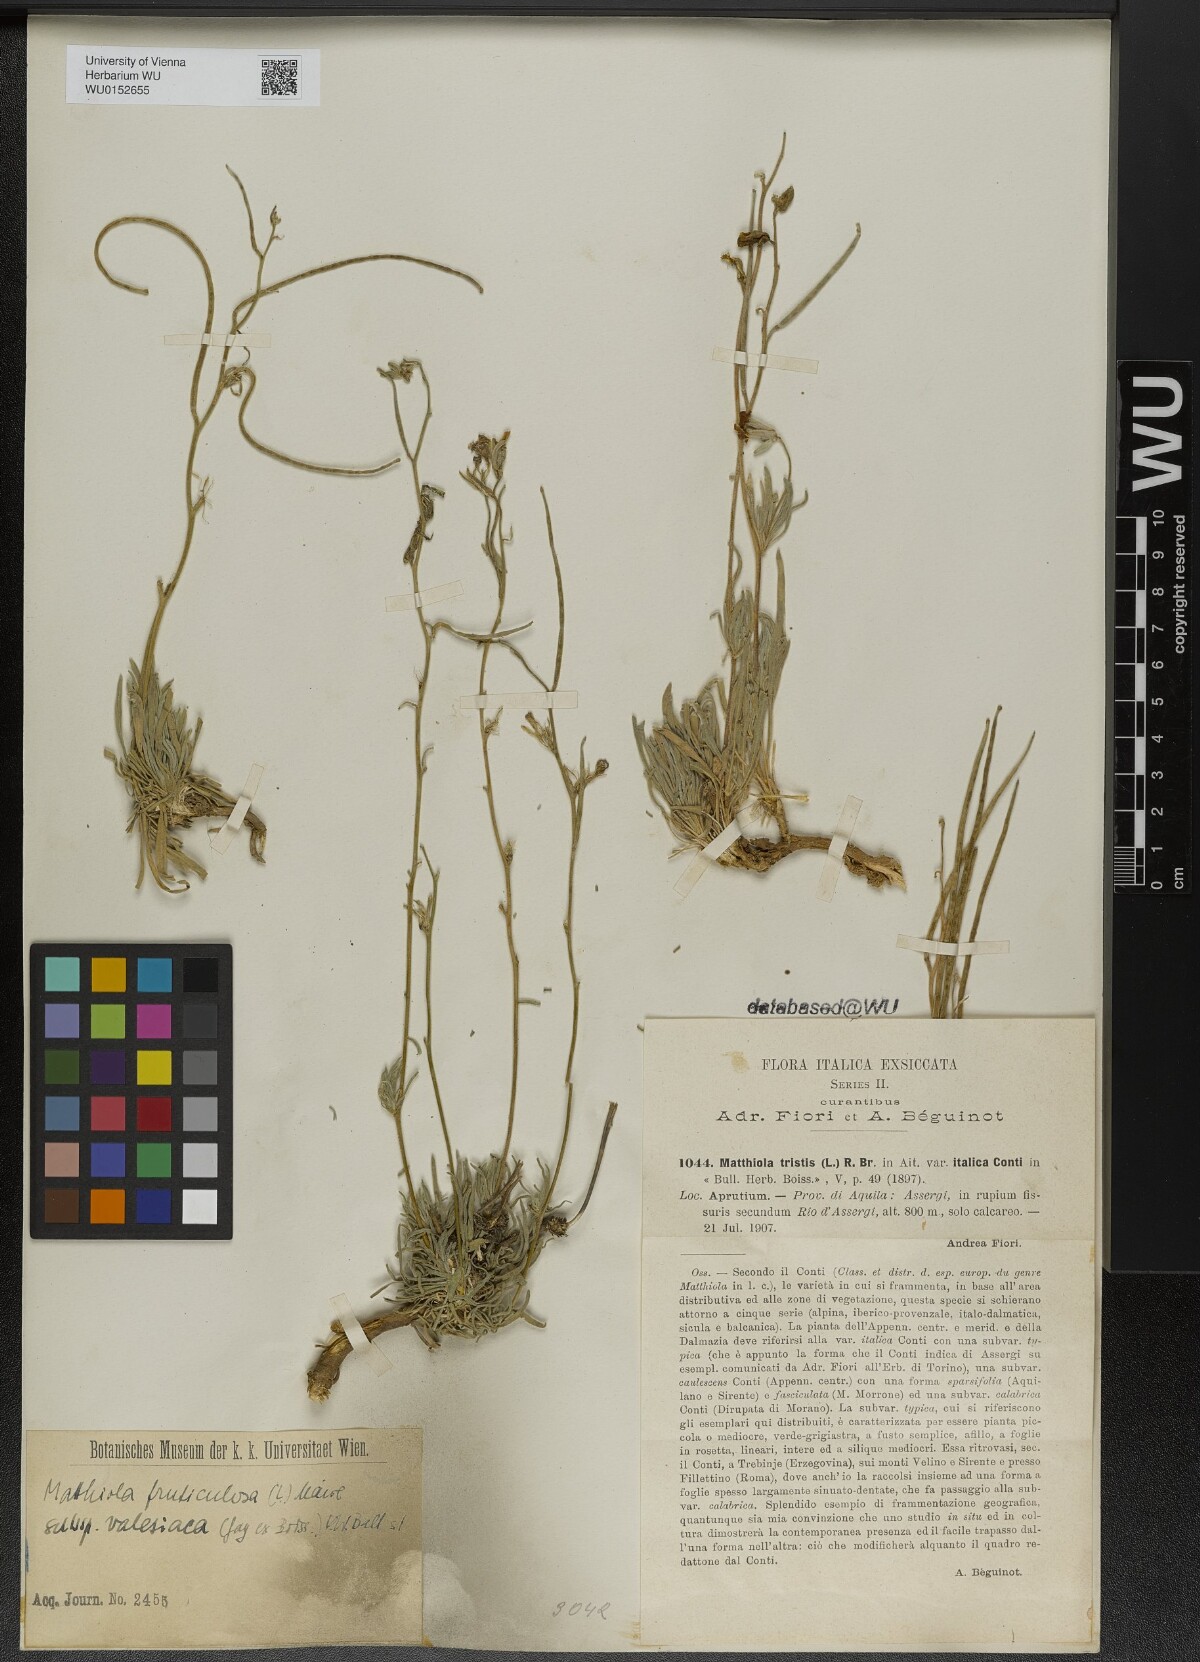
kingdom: Plantae
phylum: Tracheophyta
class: Magnoliopsida
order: Brassicales
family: Brassicaceae
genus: Matthiola
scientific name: Matthiola fruticulosa
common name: Sad stock
